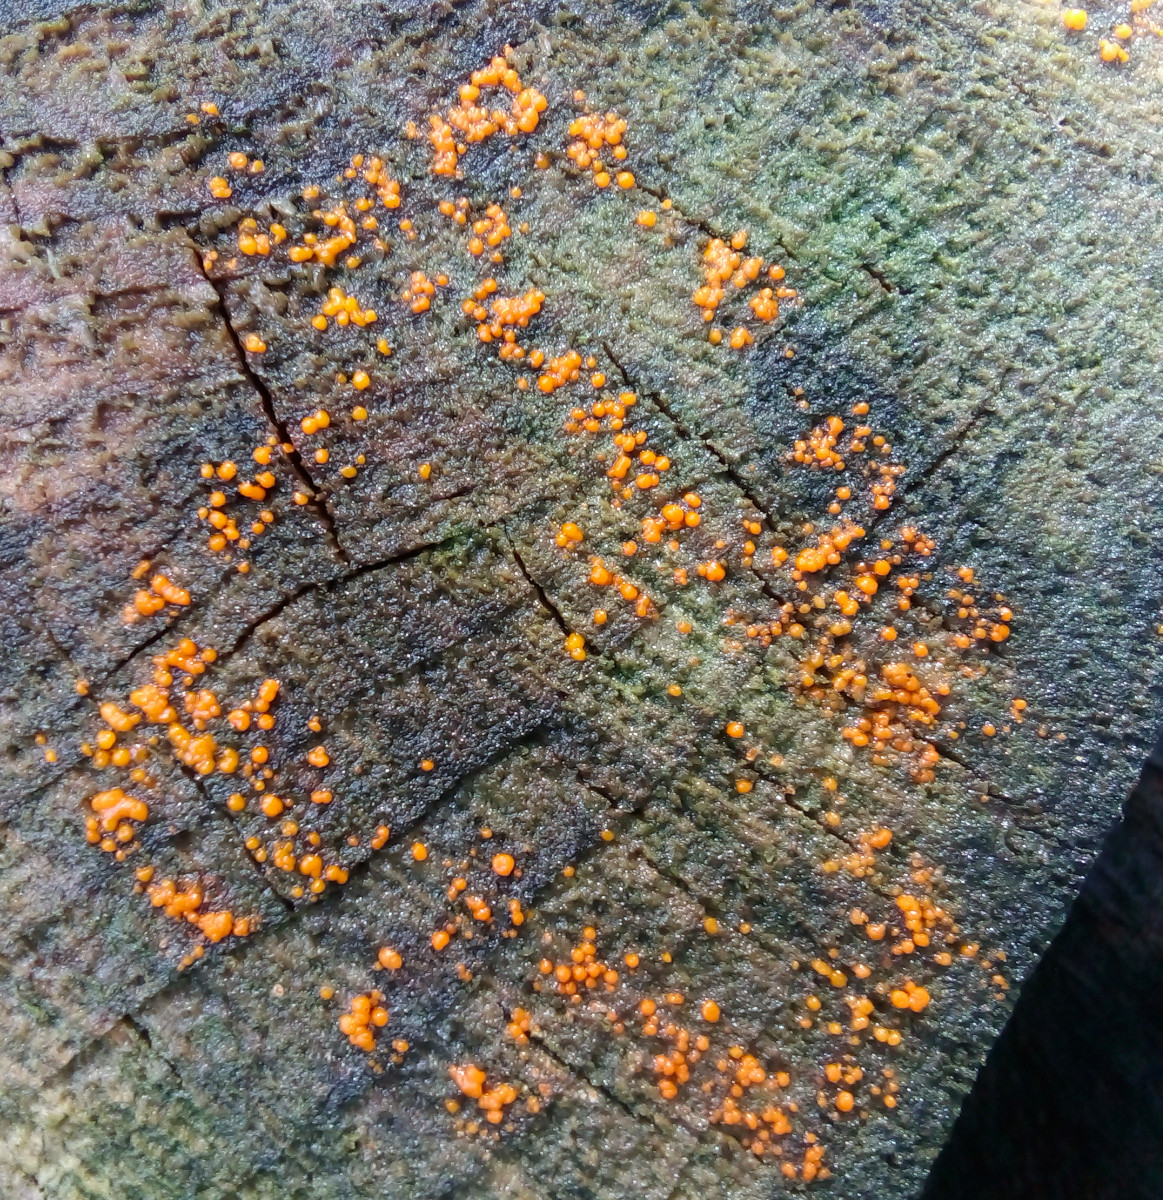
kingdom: Fungi
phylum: Basidiomycota
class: Dacrymycetes
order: Dacrymycetales
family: Dacrymycetaceae
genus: Dacrymyces
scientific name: Dacrymyces stillatus
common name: almindelig tåresvamp
